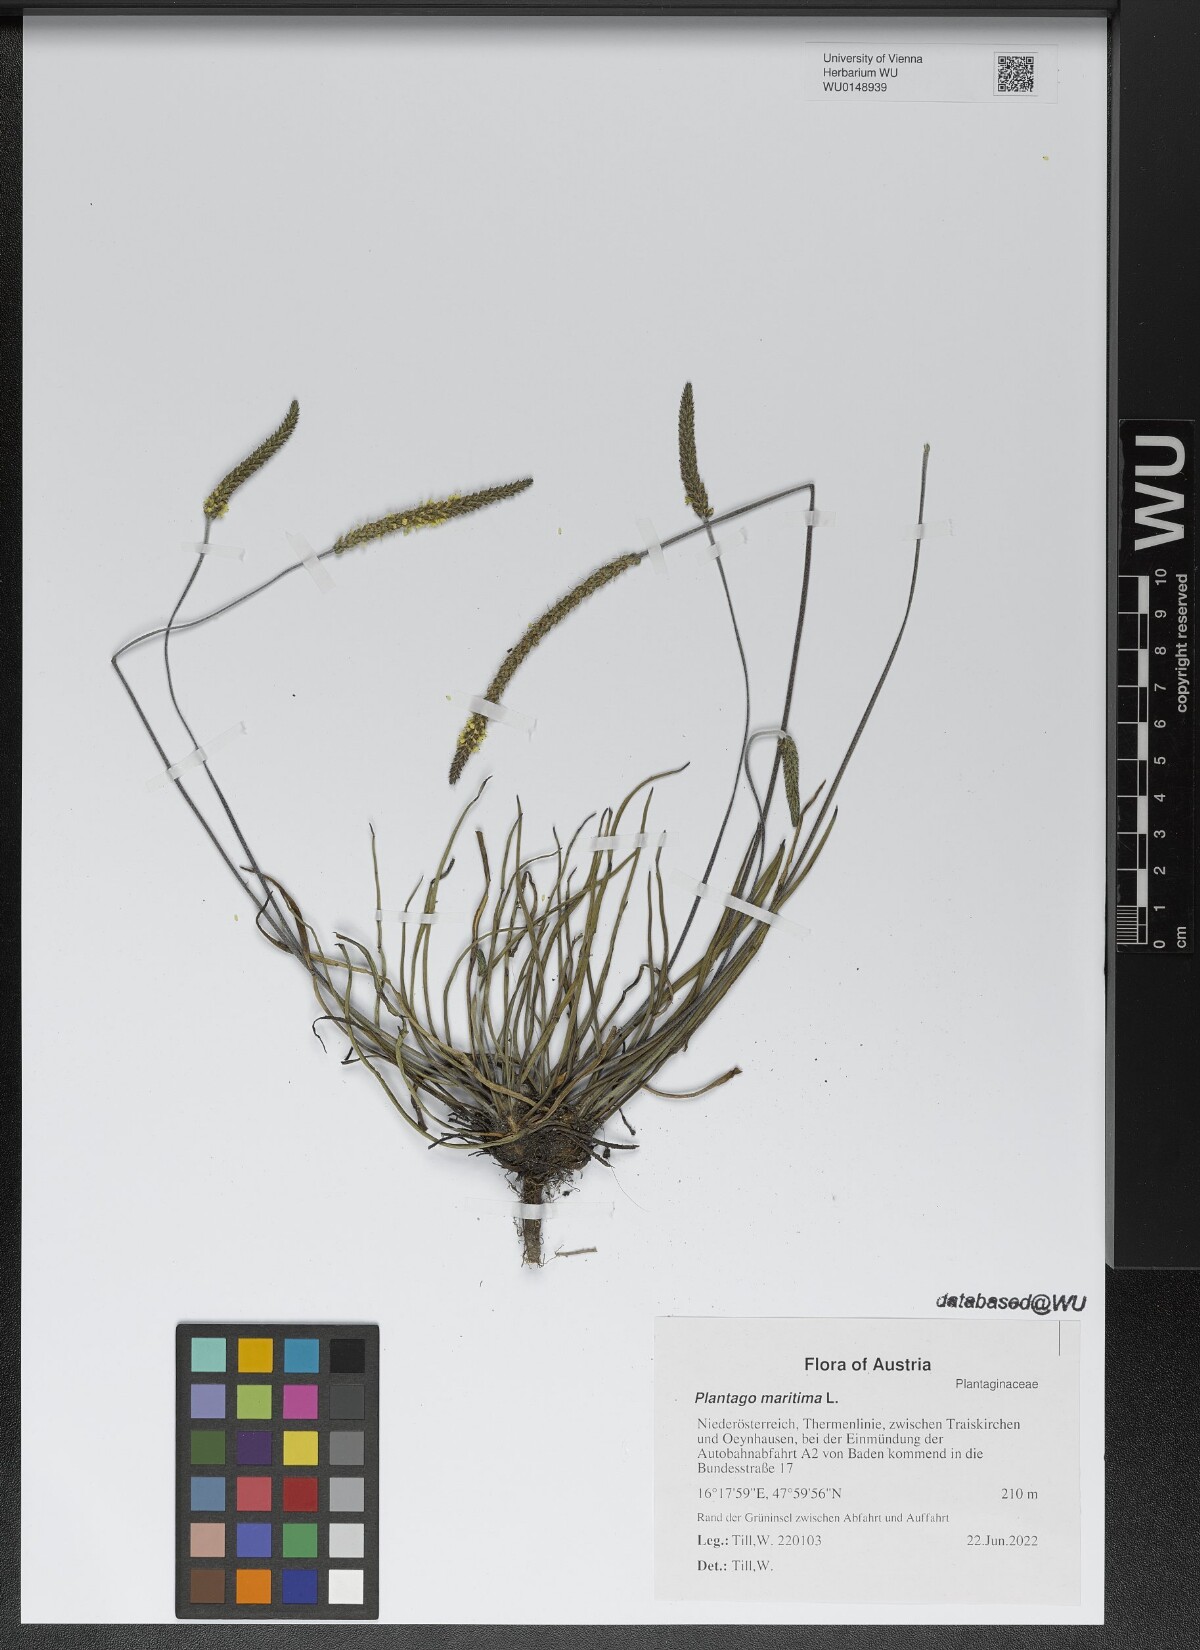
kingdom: Plantae
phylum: Tracheophyta
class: Magnoliopsida
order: Lamiales
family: Plantaginaceae
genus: Plantago
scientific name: Plantago maritima
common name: Sea plantain
